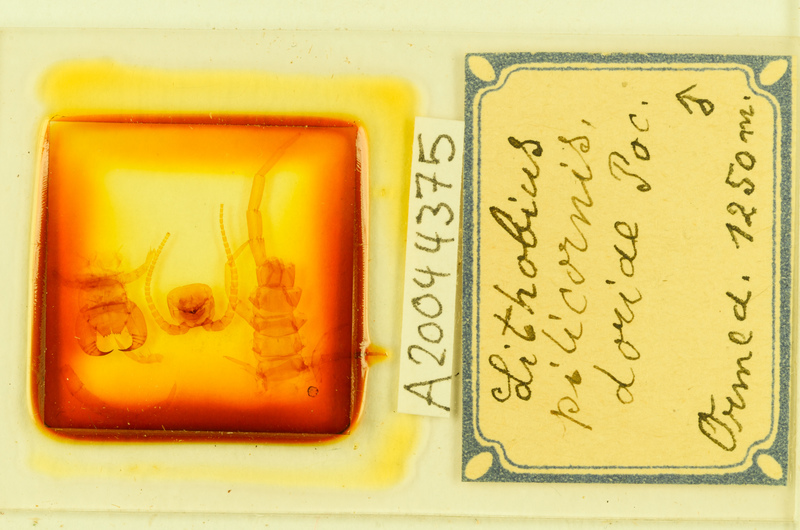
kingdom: Animalia
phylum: Arthropoda
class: Chilopoda
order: Lithobiomorpha
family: Lithobiidae
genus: Lithobius
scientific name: Lithobius pilicornis
